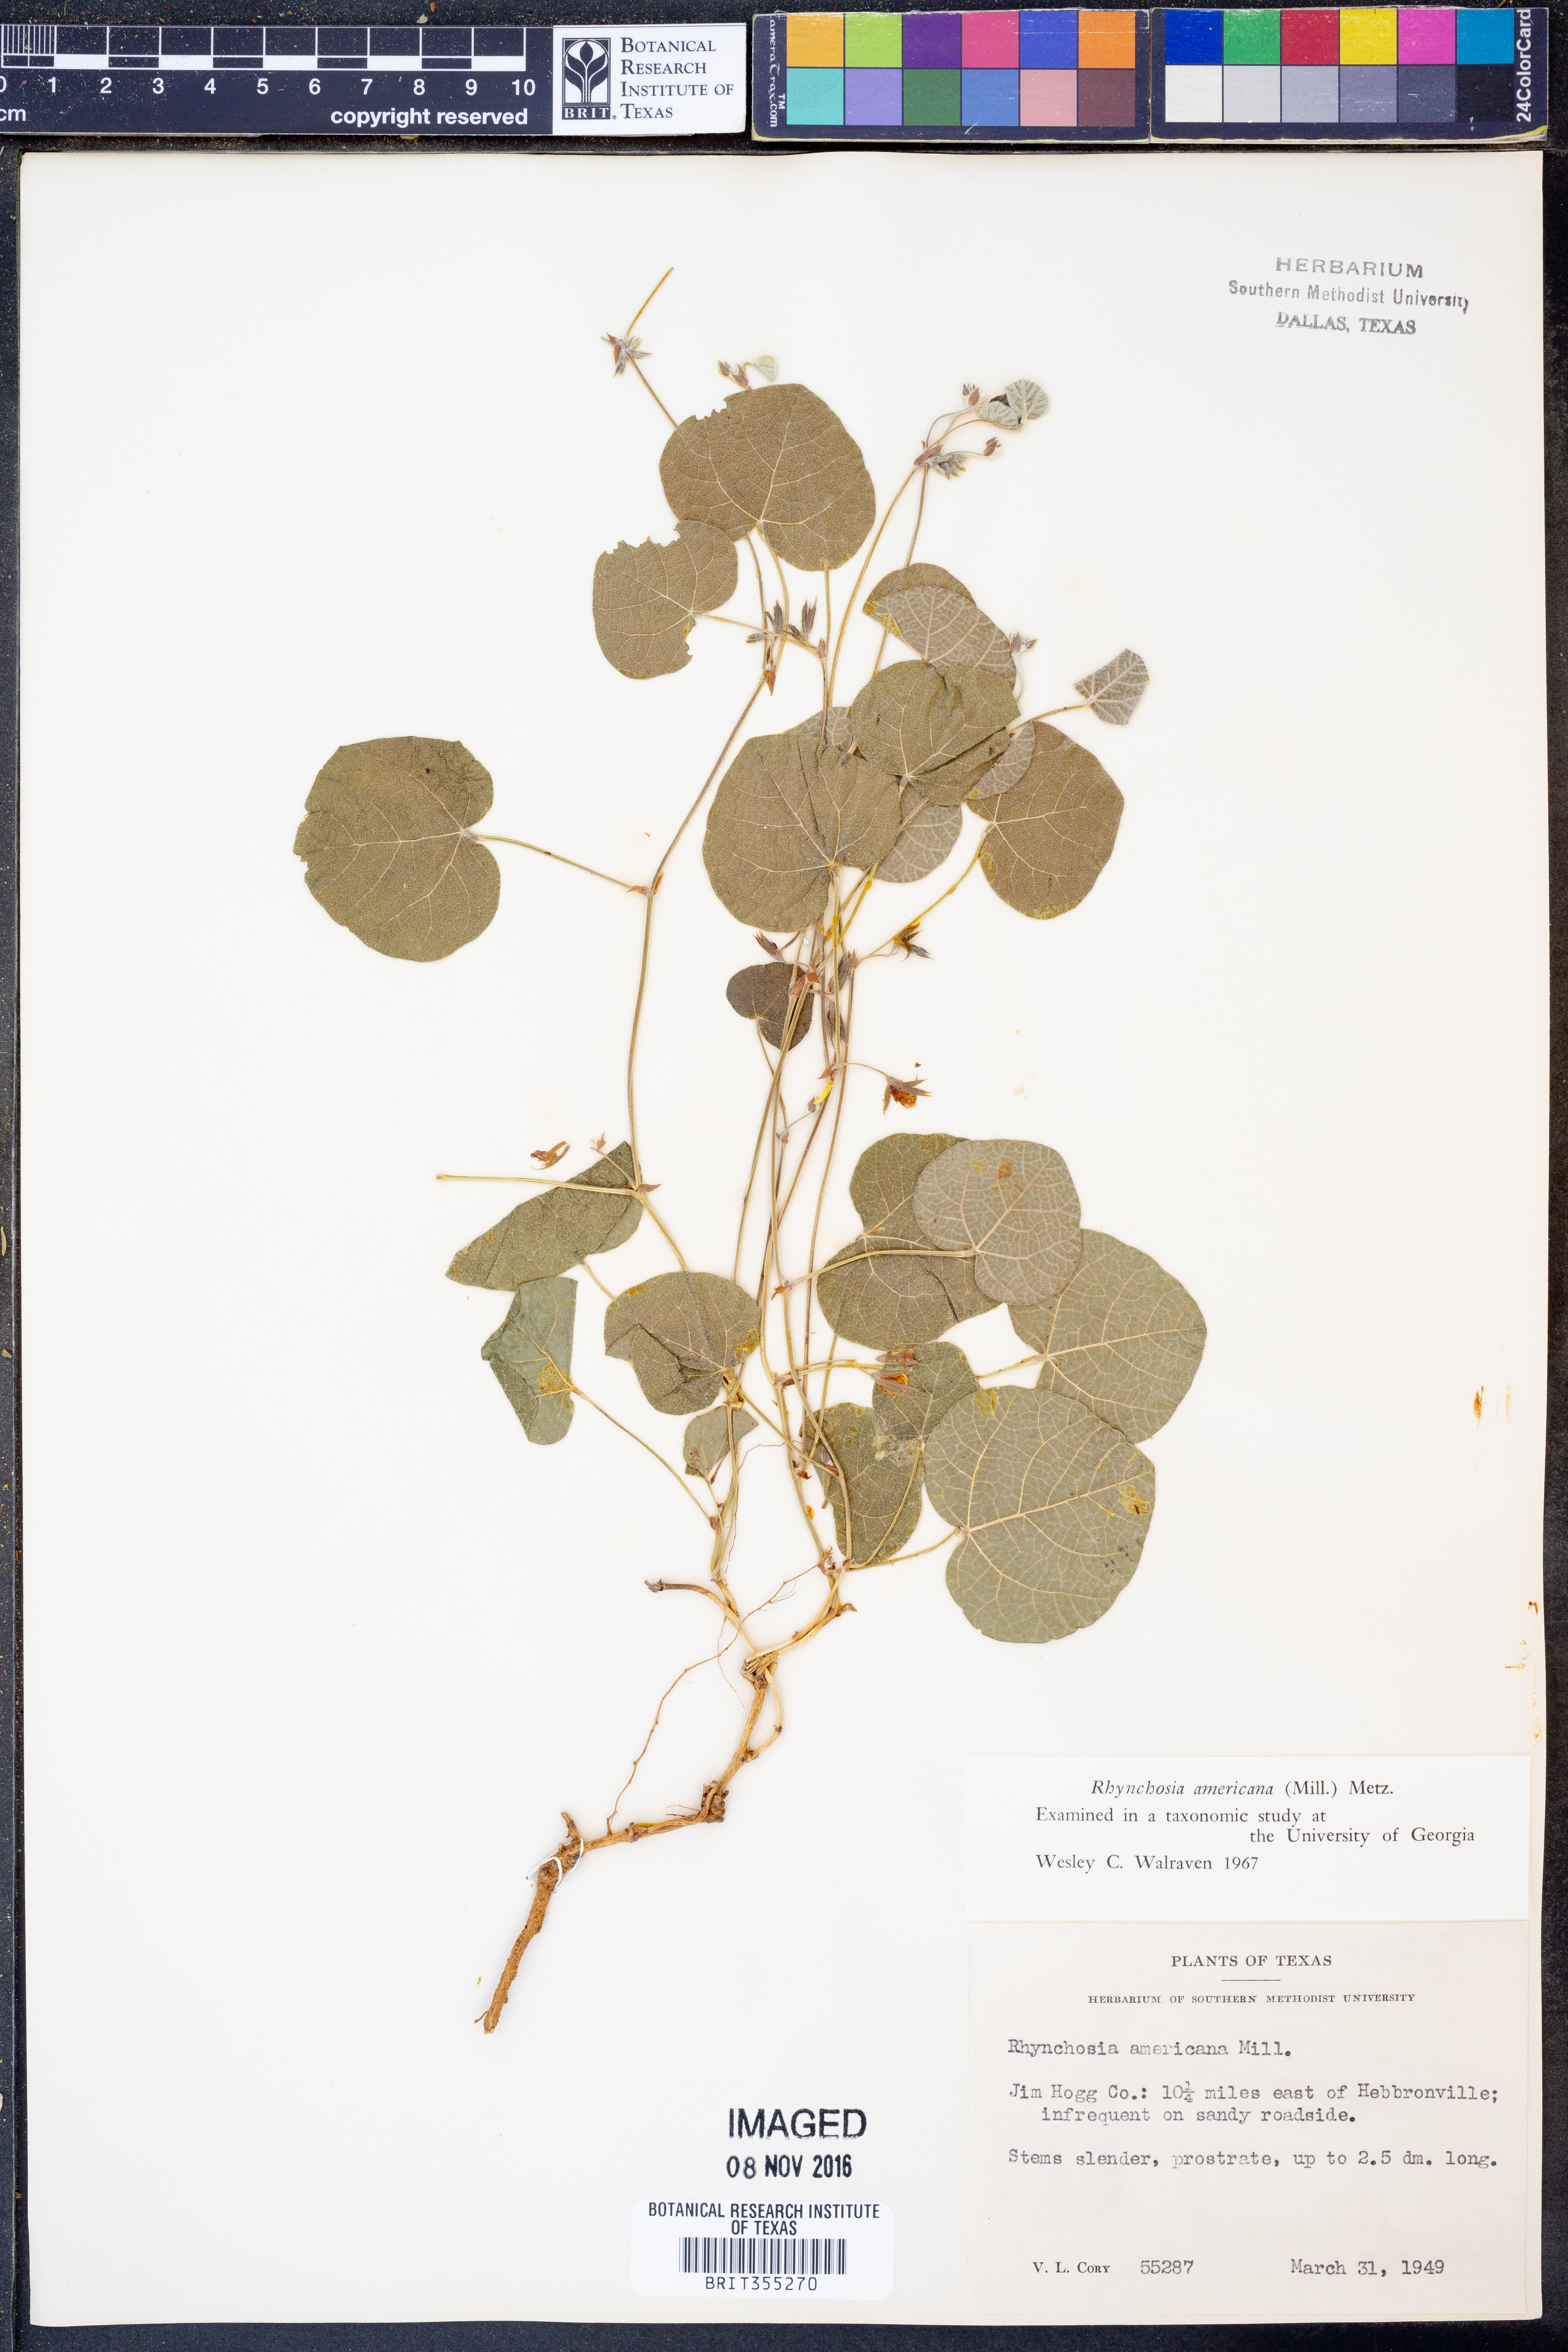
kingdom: Plantae
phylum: Tracheophyta
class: Magnoliopsida
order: Fabales
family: Fabaceae
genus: Rhynchosia
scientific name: Rhynchosia americana
